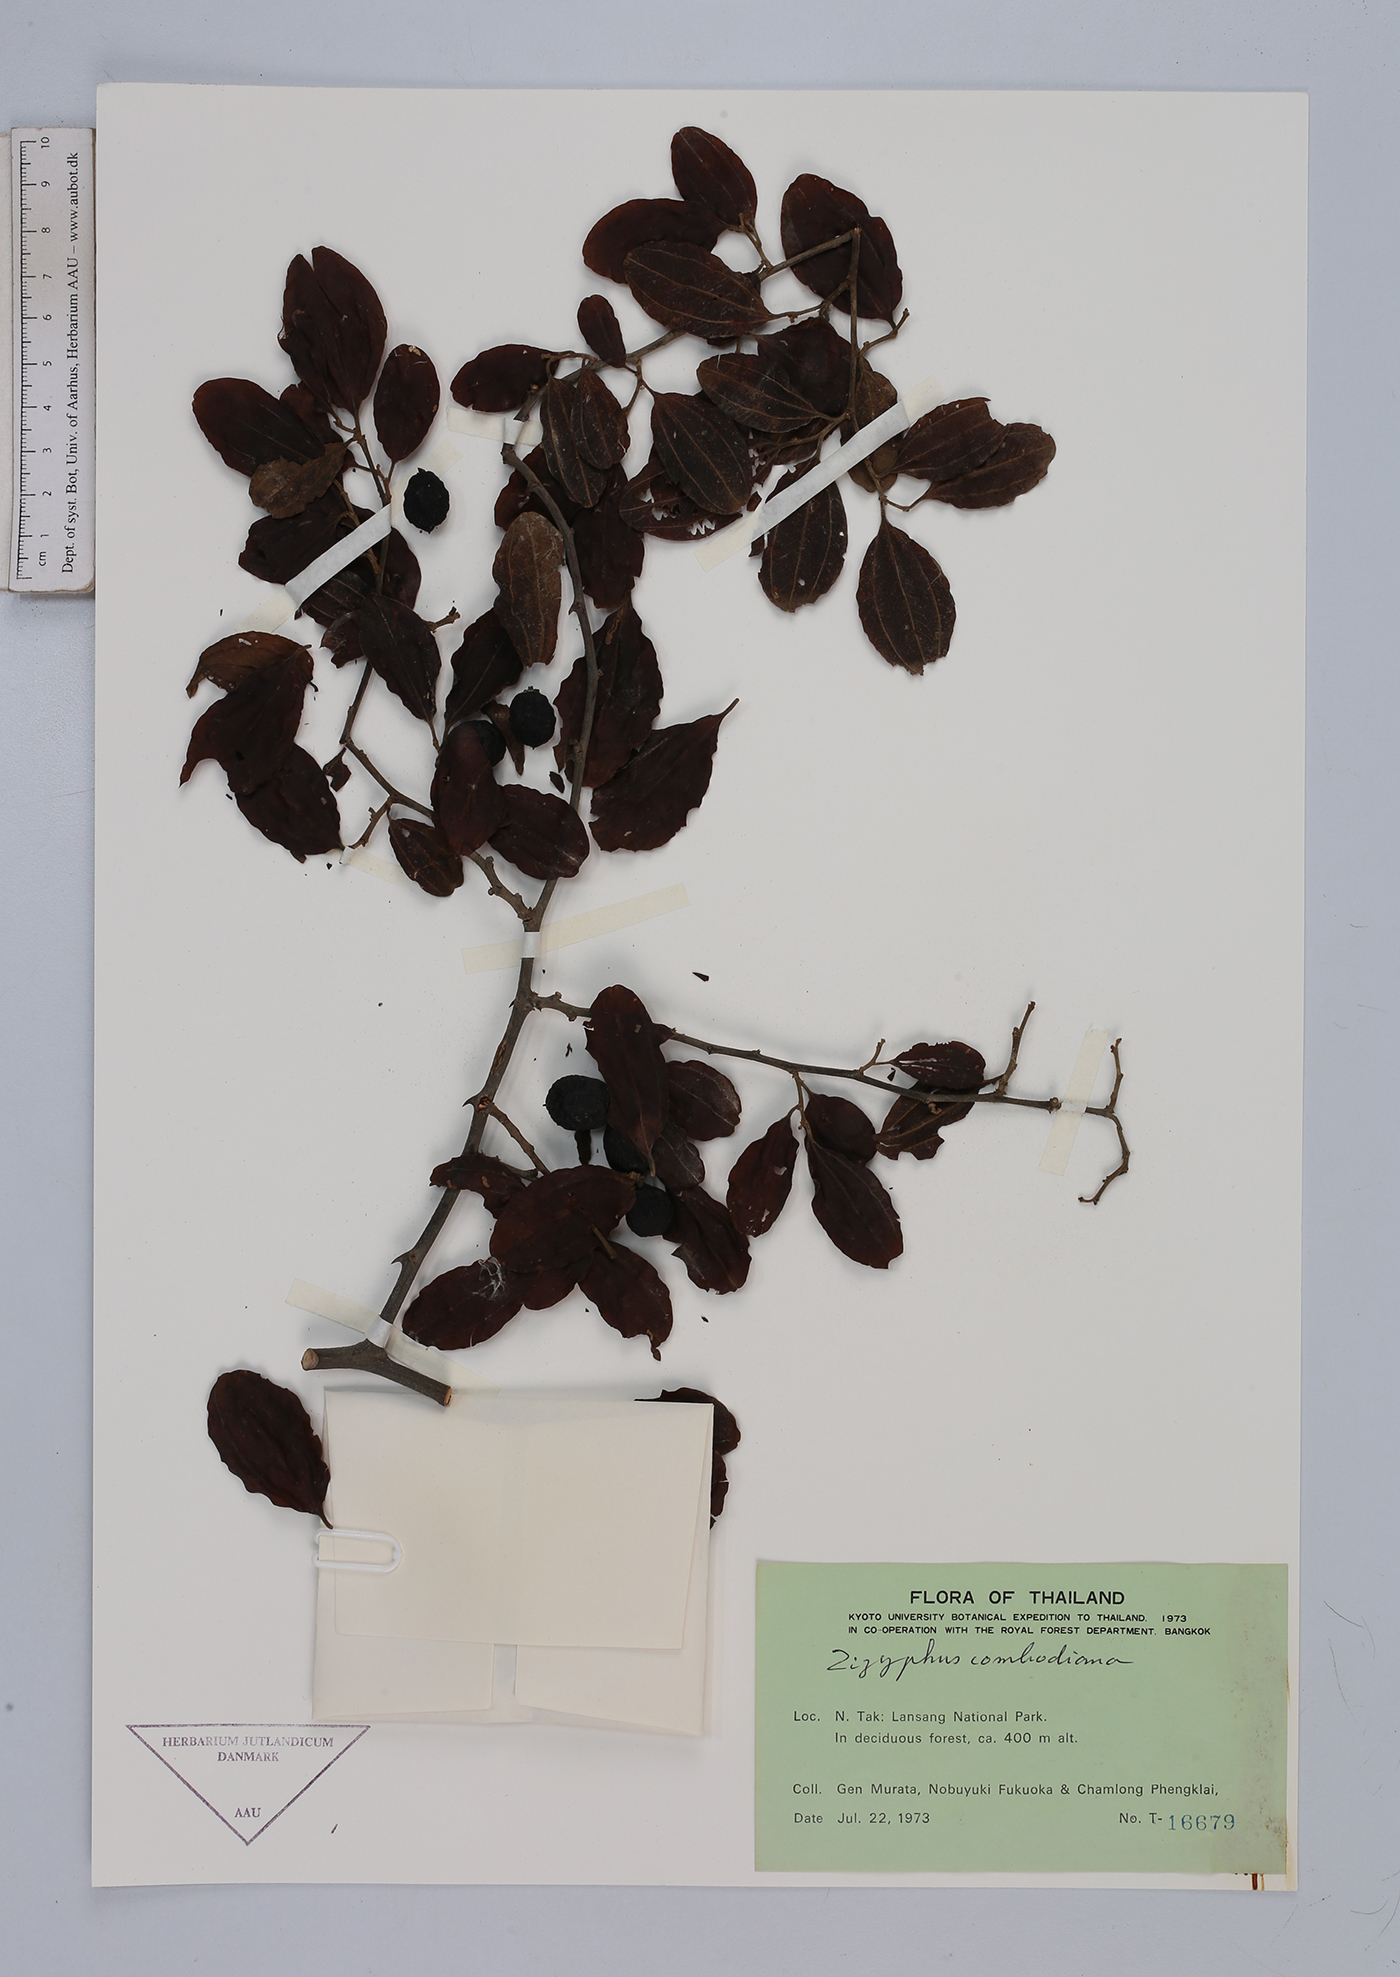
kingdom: Plantae
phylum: Tracheophyta
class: Magnoliopsida
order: Rosales
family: Rhamnaceae
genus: Ziziphus
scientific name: Ziziphus cambodiana
